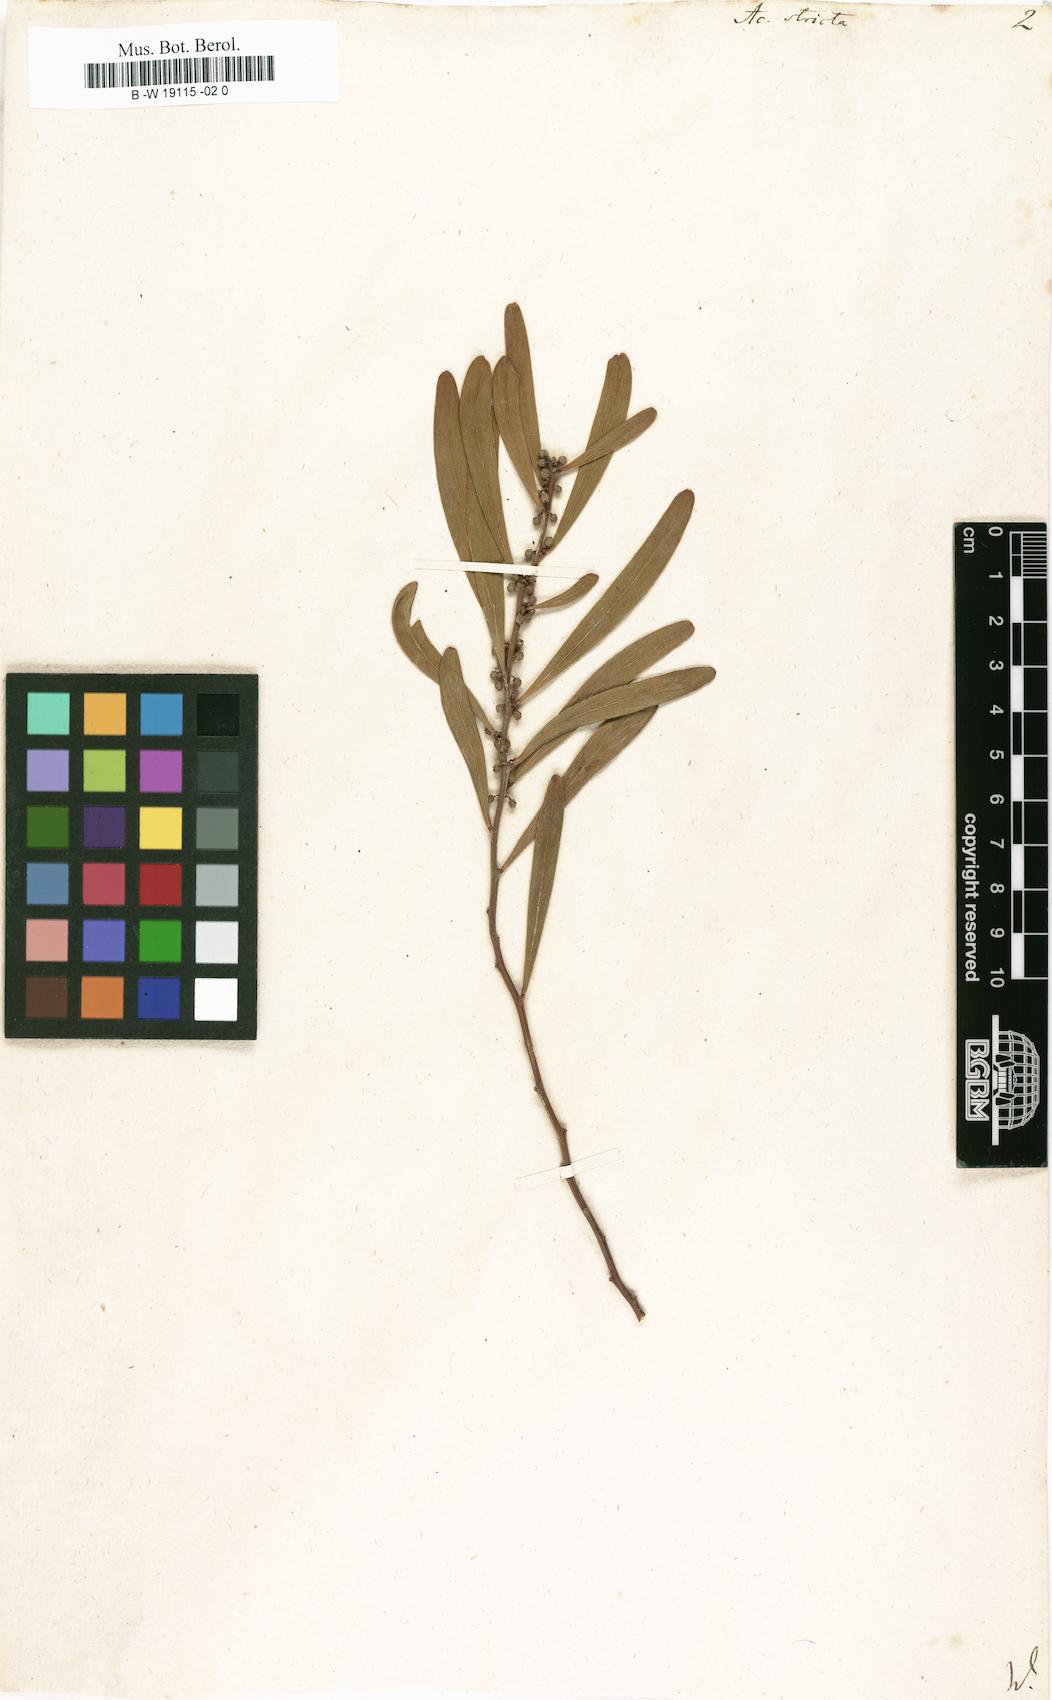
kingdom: Plantae
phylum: Tracheophyta
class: Magnoliopsida
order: Fabales
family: Fabaceae
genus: Acacia
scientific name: Acacia stricta
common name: Hop wattle
